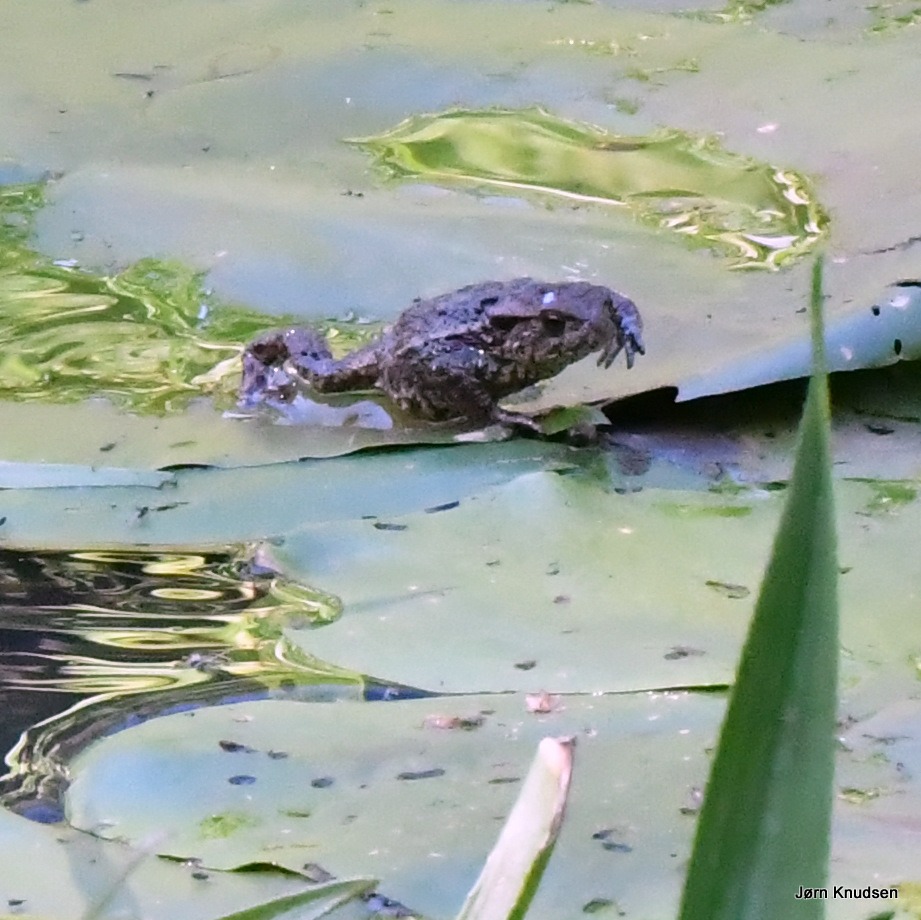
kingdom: Animalia
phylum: Chordata
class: Amphibia
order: Anura
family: Bufonidae
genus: Bufo
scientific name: Bufo bufo
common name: Skrubtudse
